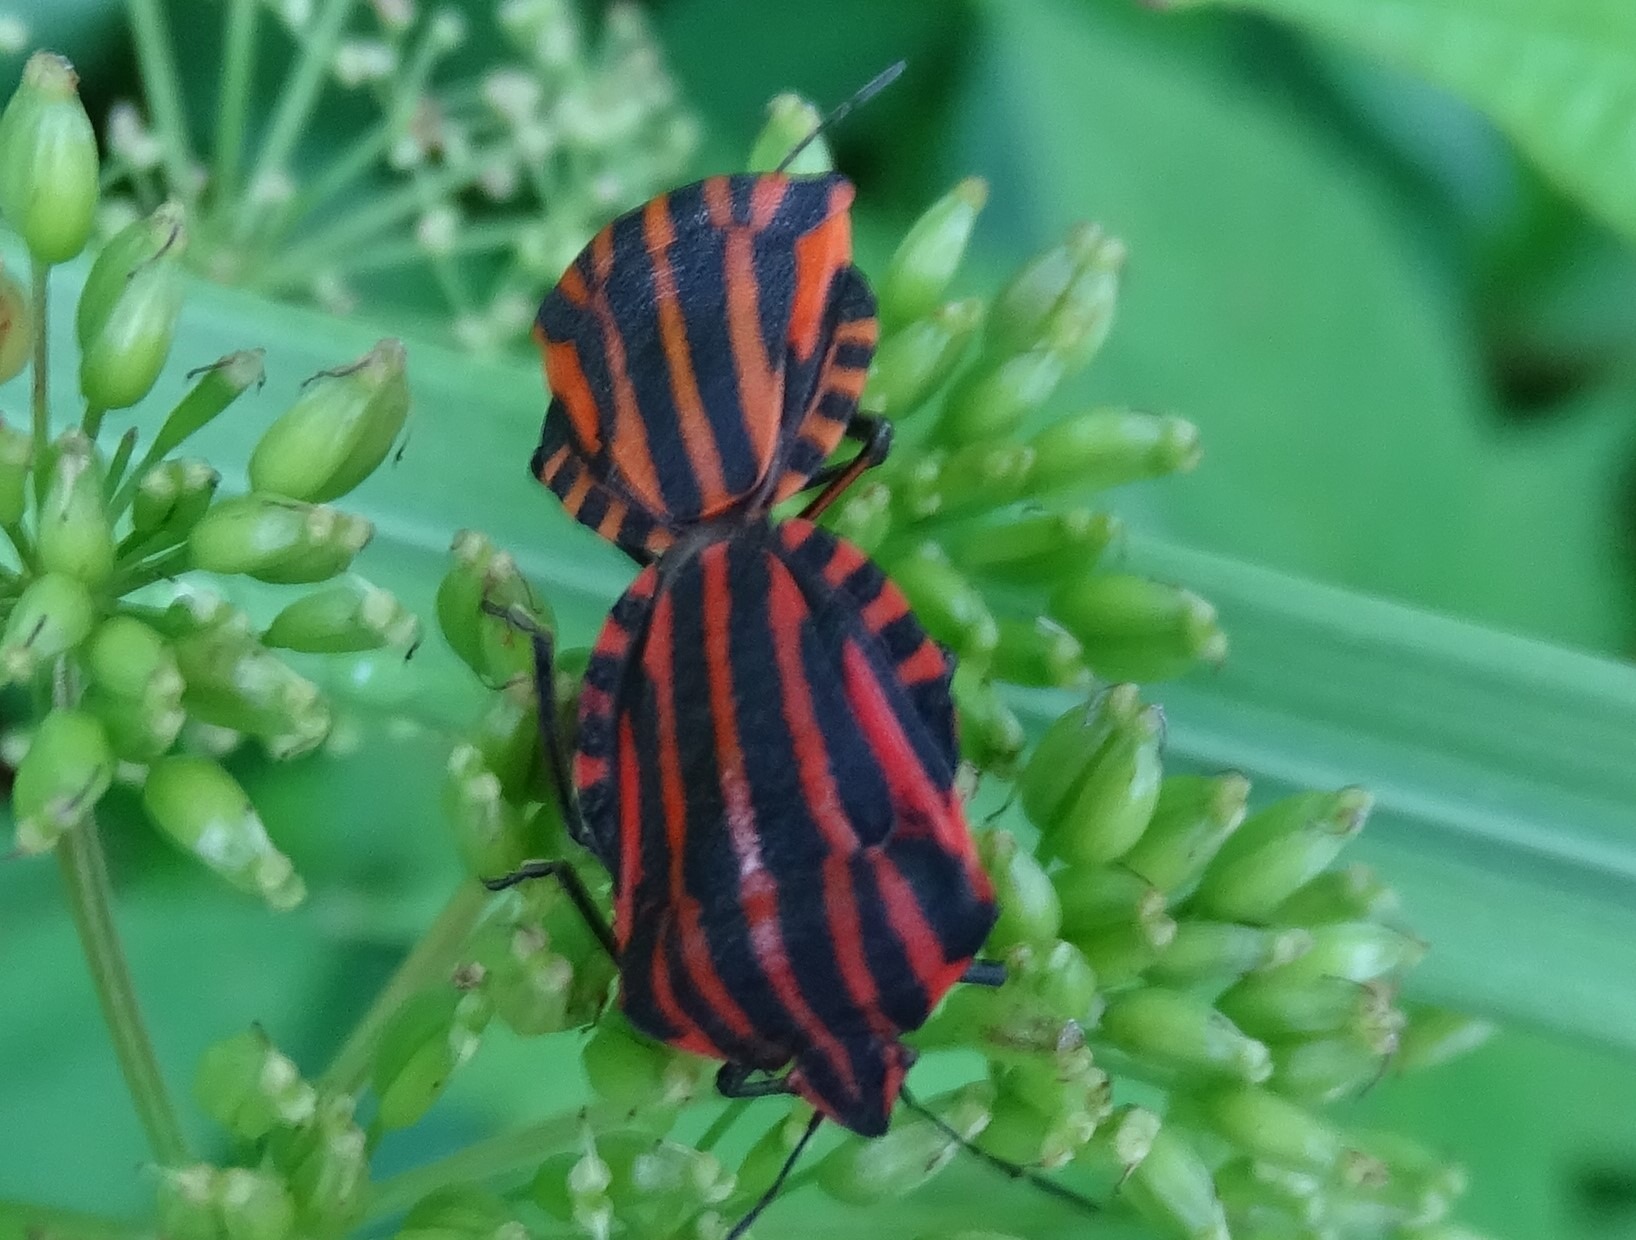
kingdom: Animalia
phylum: Arthropoda
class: Insecta
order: Hemiptera
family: Pentatomidae
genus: Graphosoma
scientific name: Graphosoma italicum
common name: Stribetæge
